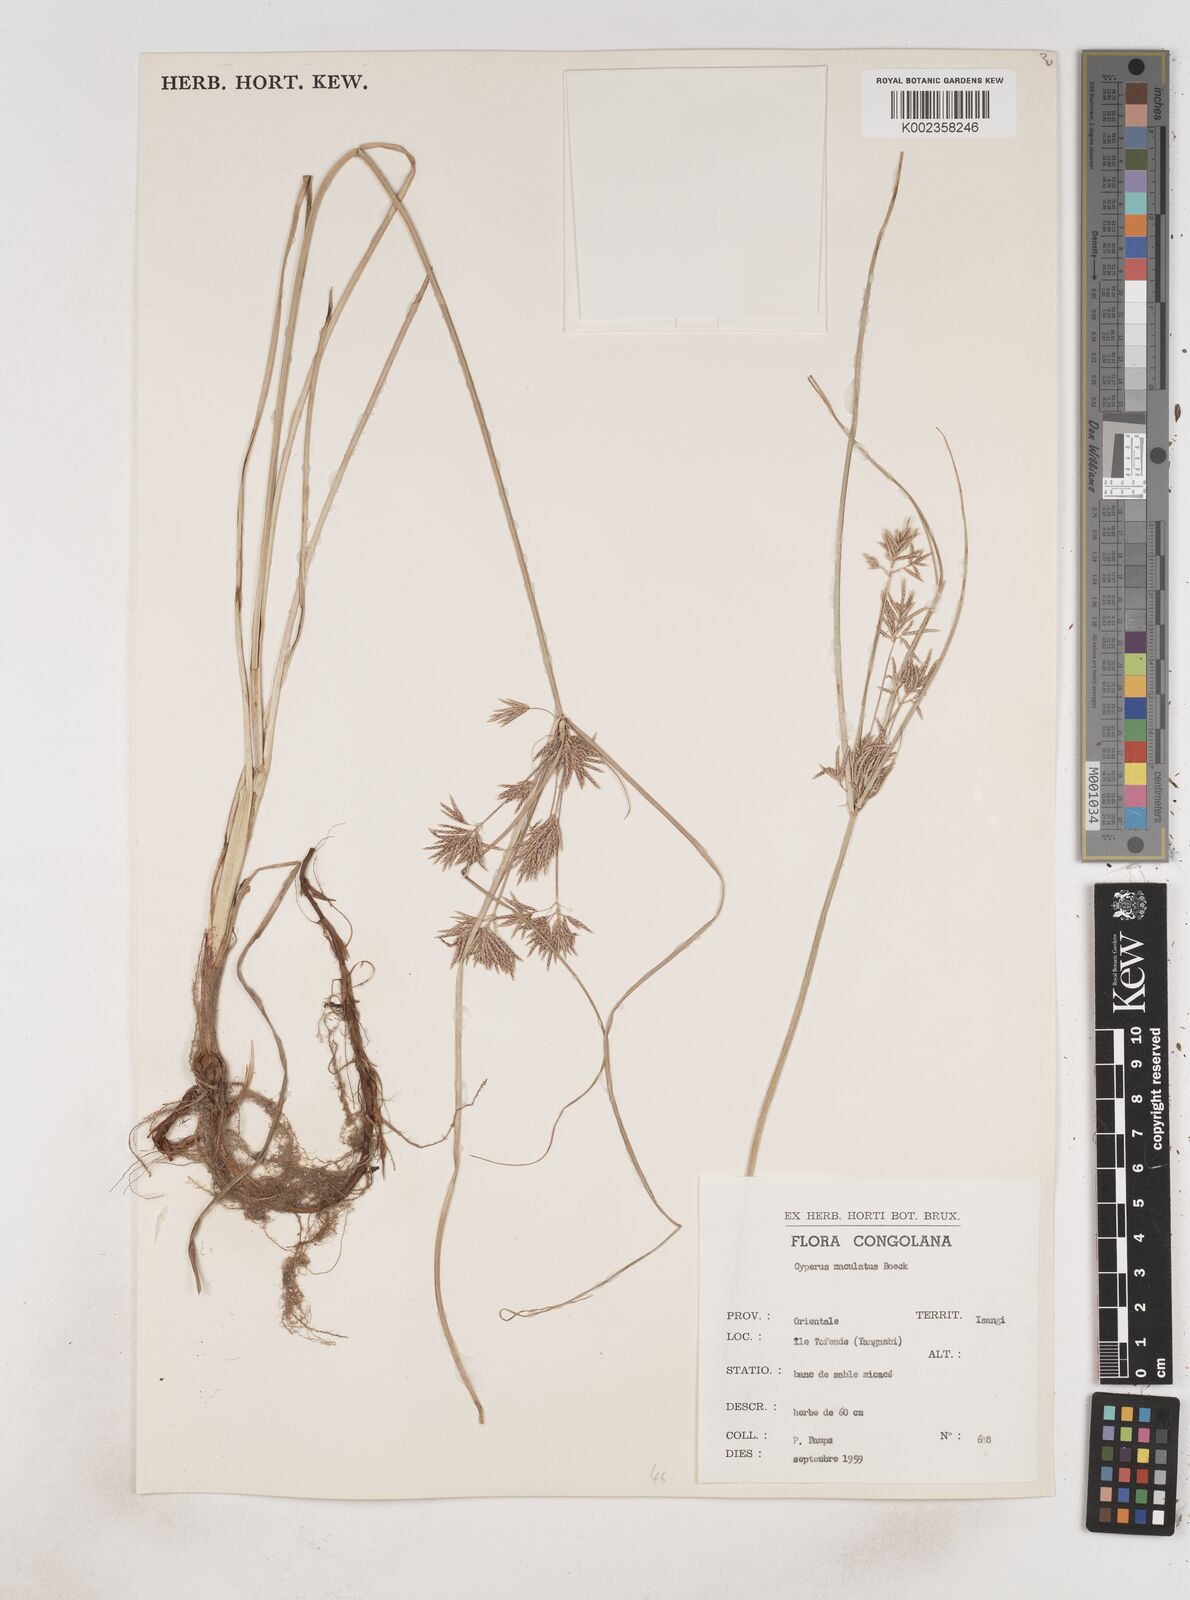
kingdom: Plantae
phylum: Tracheophyta
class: Liliopsida
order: Poales
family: Cyperaceae
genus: Cyperus
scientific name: Cyperus maculatus
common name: Maculated sedge
